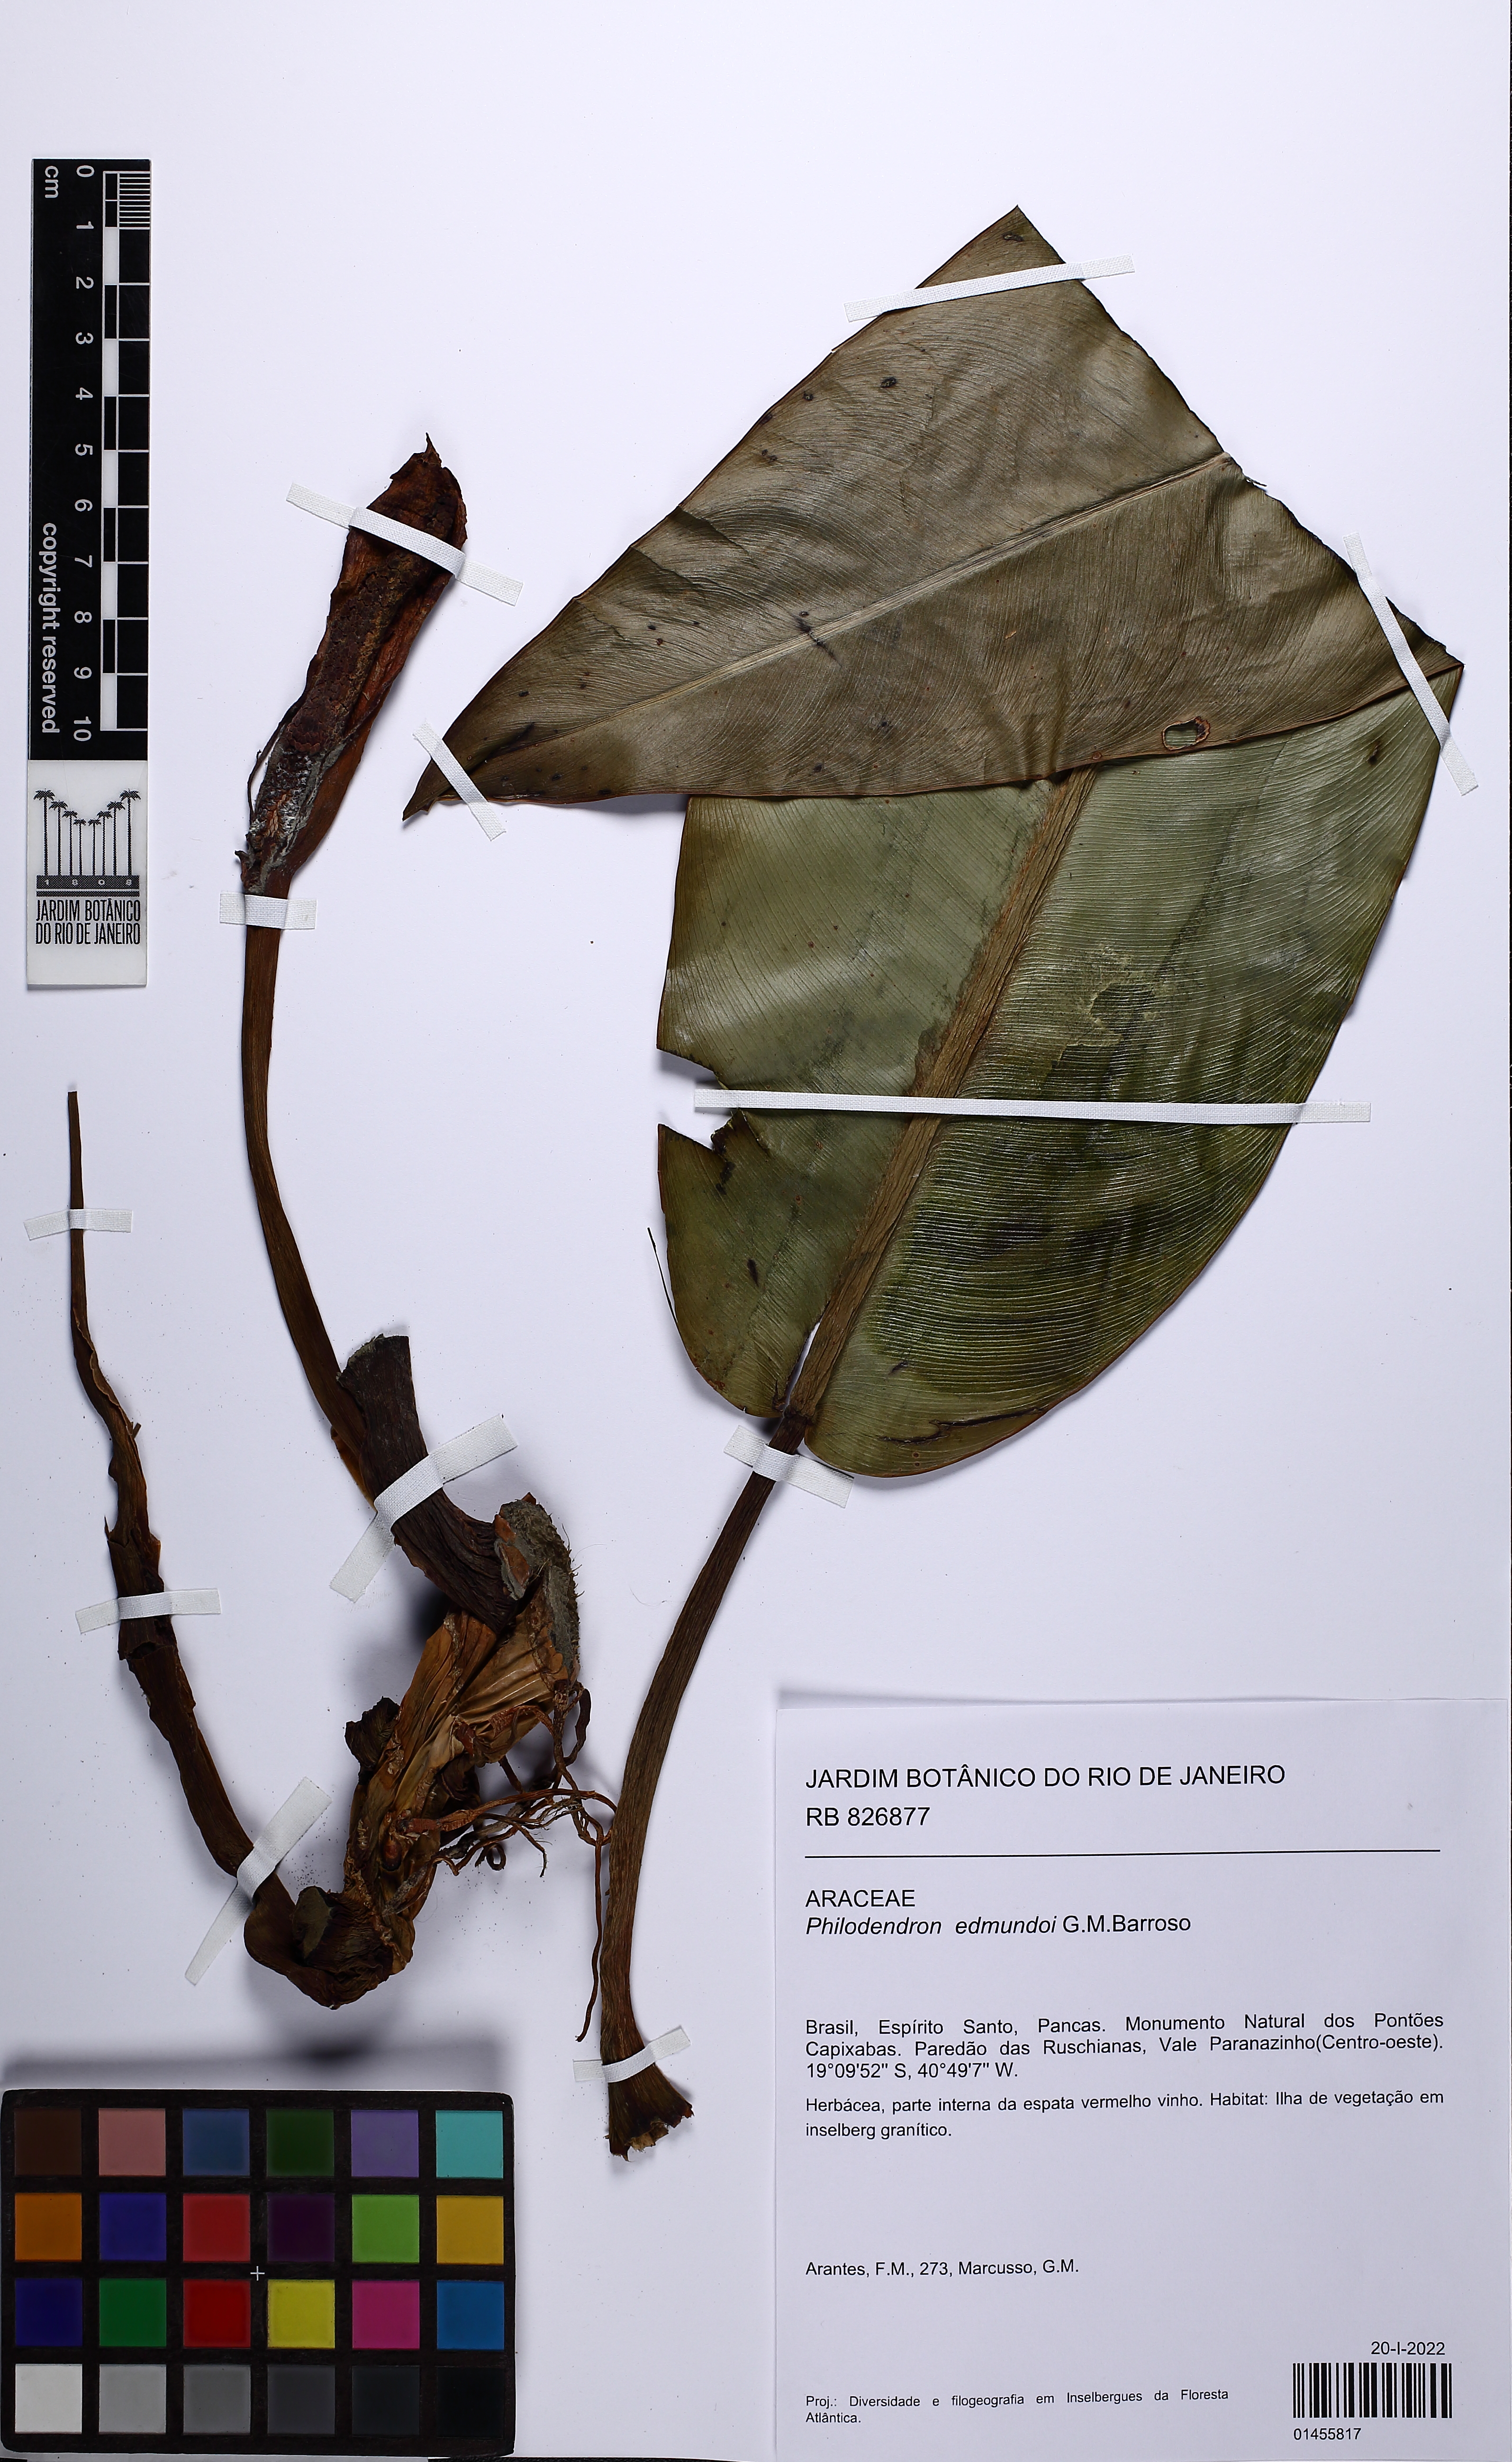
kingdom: Plantae
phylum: Tracheophyta
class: Liliopsida
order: Alismatales
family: Araceae
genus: Philodendron
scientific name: Philodendron edmundoi
